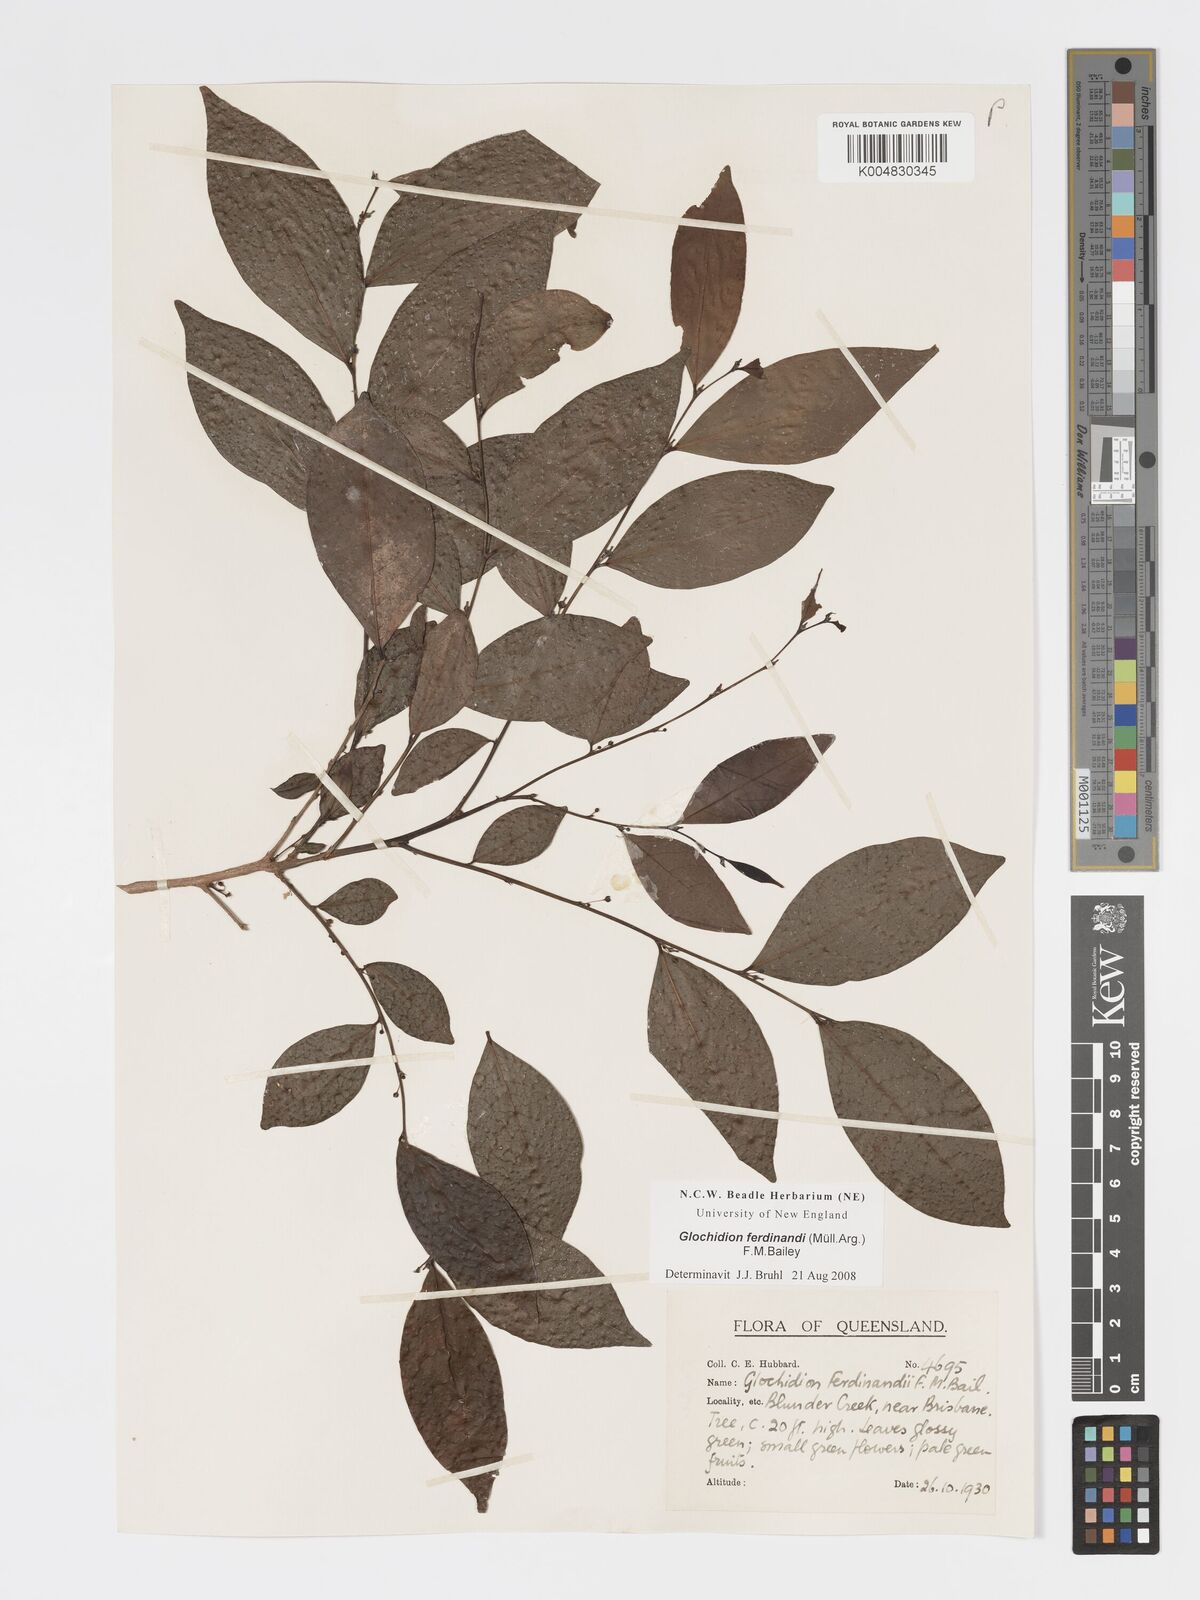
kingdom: Plantae
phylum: Tracheophyta
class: Magnoliopsida
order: Malpighiales
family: Phyllanthaceae
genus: Glochidion
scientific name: Glochidion ferdinandi
